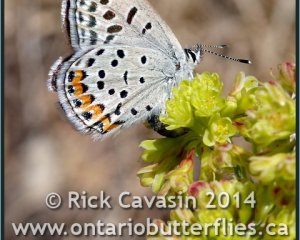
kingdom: Animalia
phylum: Arthropoda
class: Insecta
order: Lepidoptera
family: Lycaenidae
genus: Plebejus
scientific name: Plebejus lupini
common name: Lupine Blue
